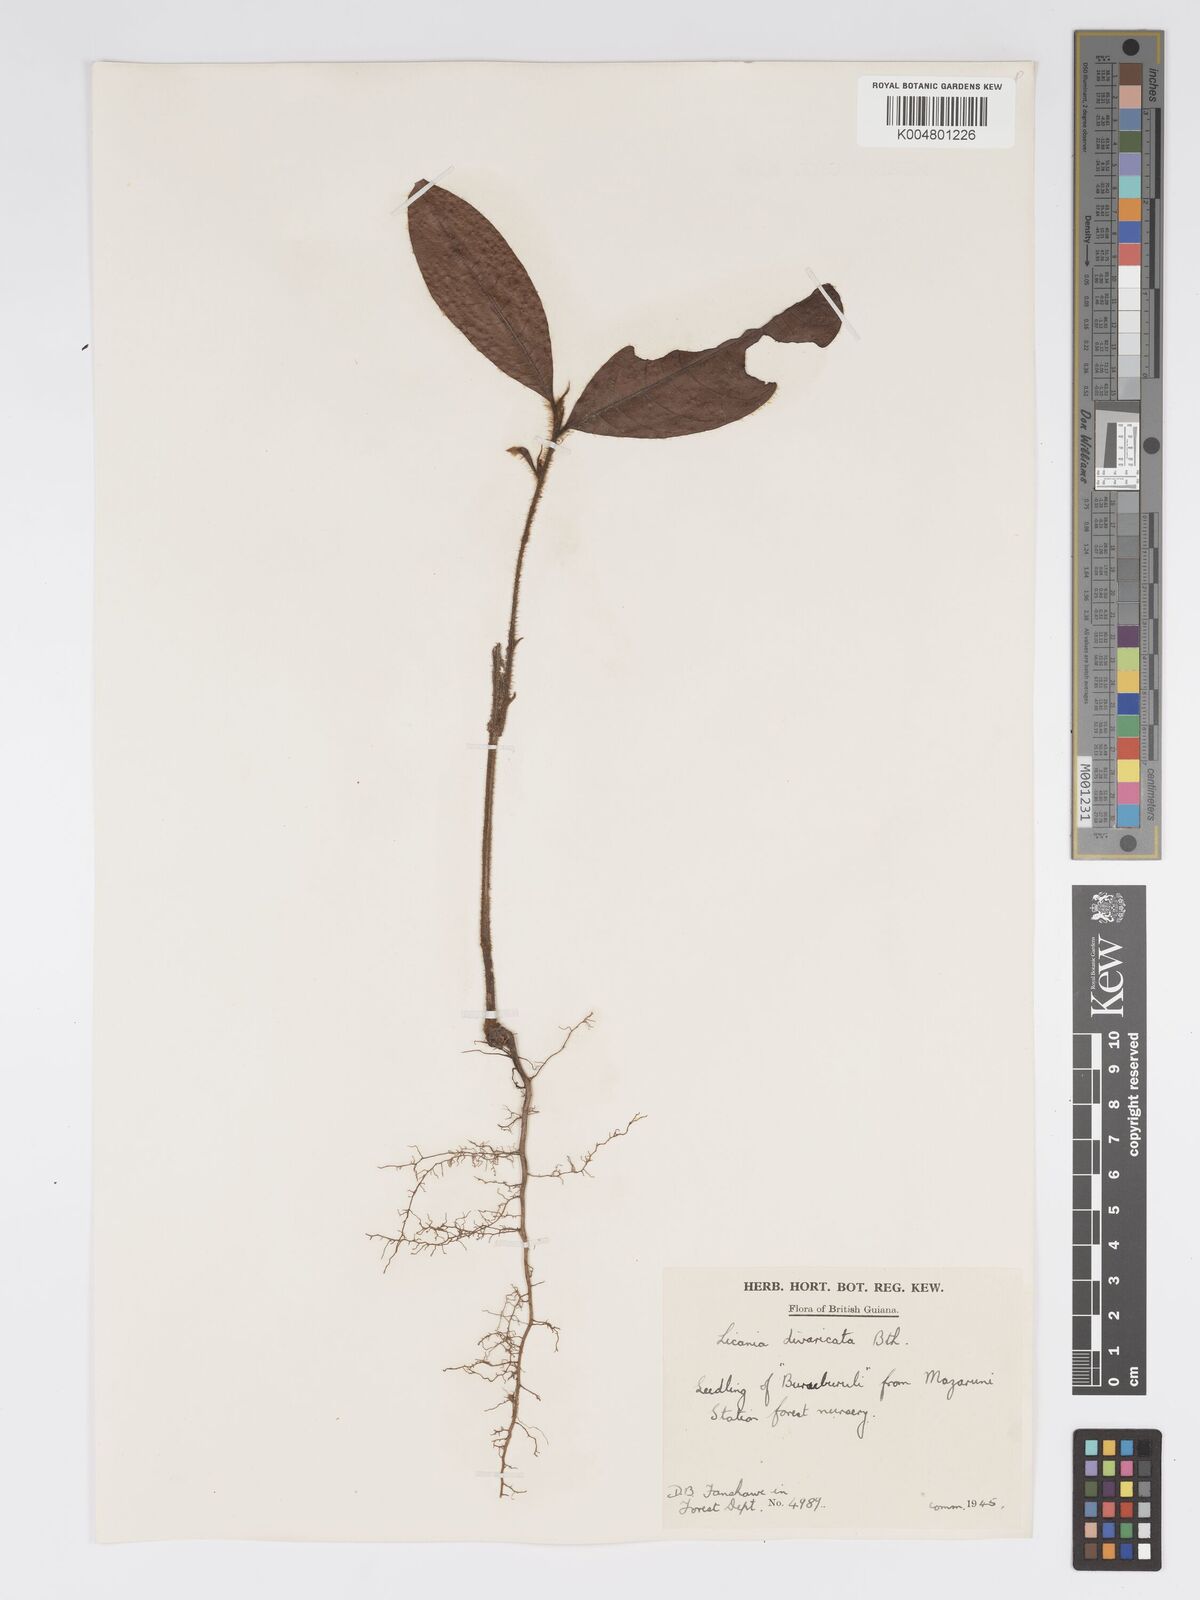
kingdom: Plantae
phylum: Tracheophyta
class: Magnoliopsida
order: Malpighiales
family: Chrysobalanaceae
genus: Hymenopus
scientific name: Hymenopus divaricatus
